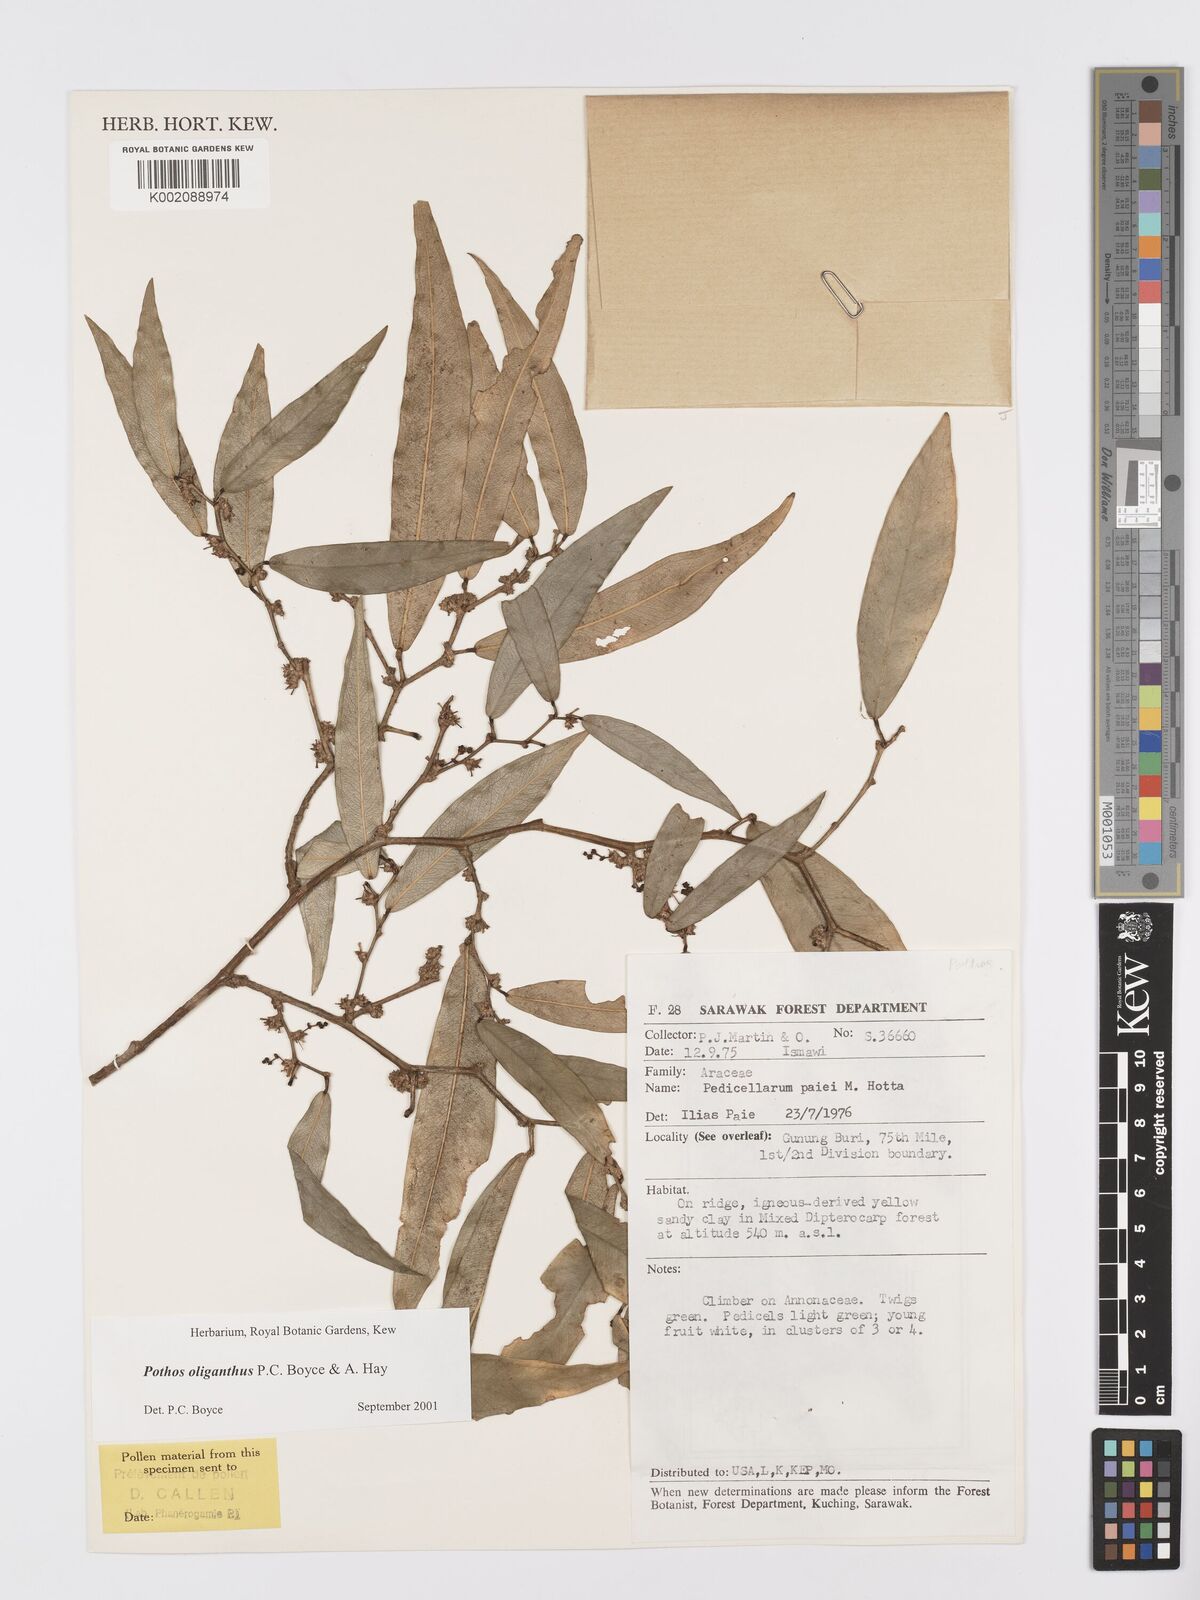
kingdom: Plantae
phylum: Tracheophyta
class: Liliopsida
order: Alismatales
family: Araceae
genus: Pothos
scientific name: Pothos oliganthus
